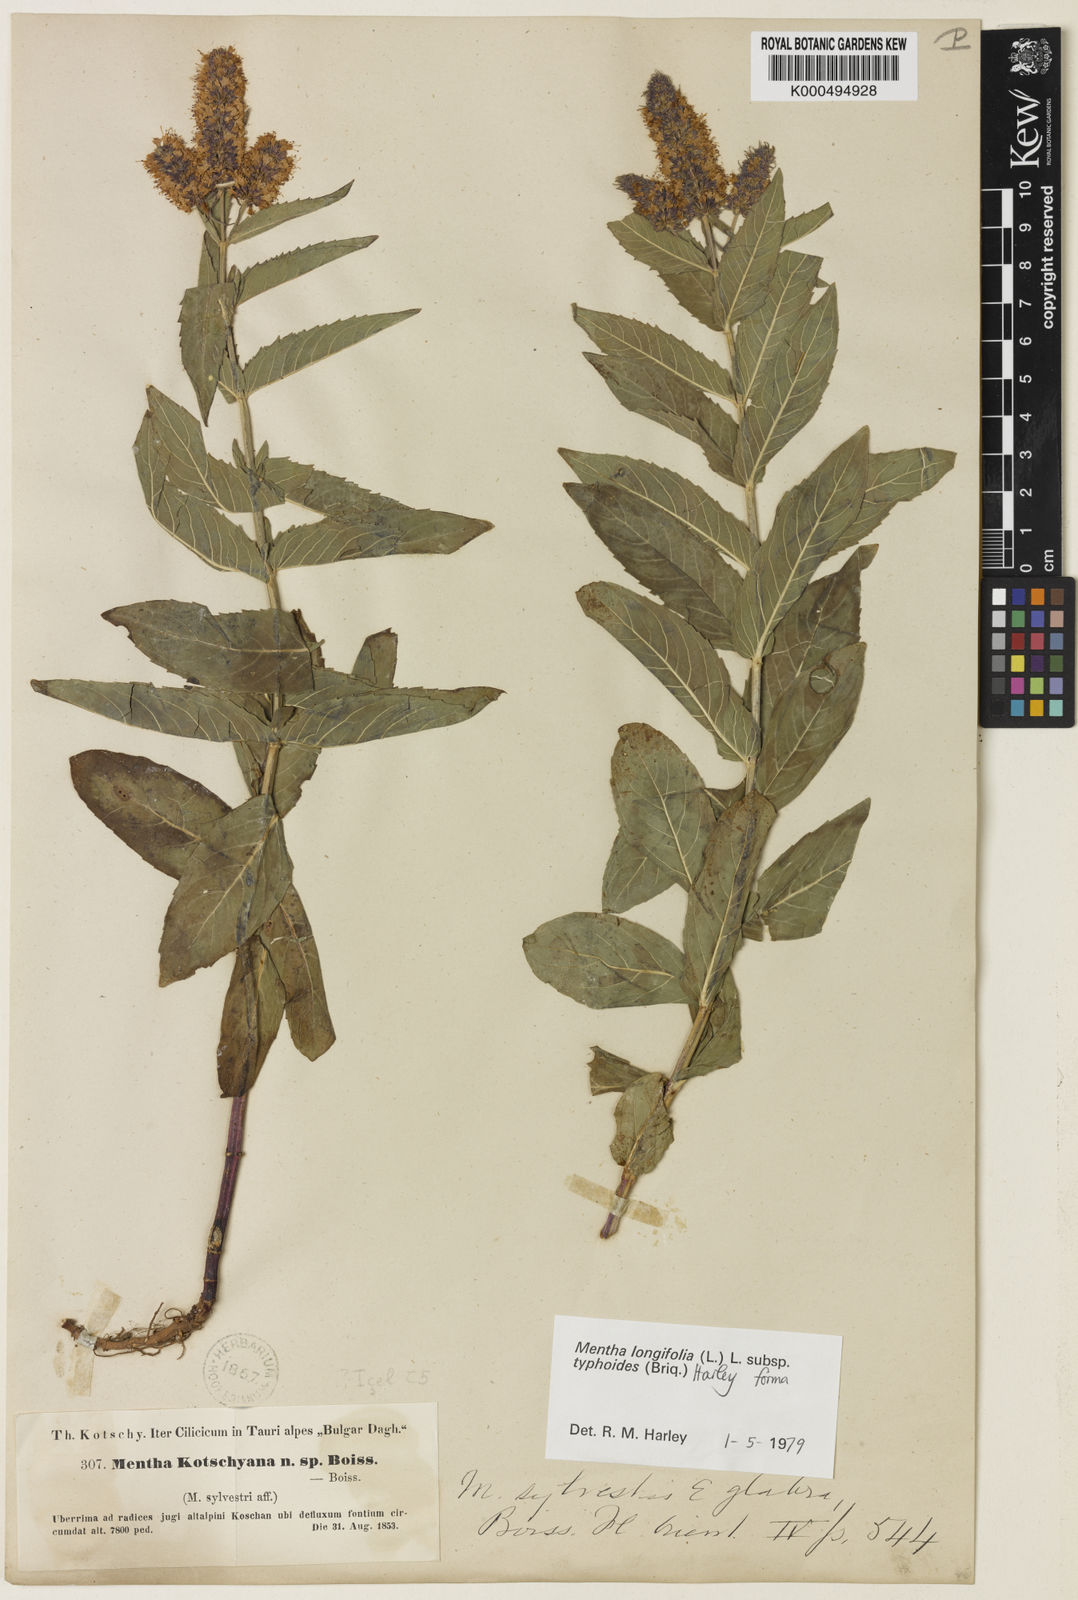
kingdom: Plantae
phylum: Tracheophyta
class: Magnoliopsida
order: Lamiales
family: Lamiaceae
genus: Mentha
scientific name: Mentha longifolia
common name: Horse mint
